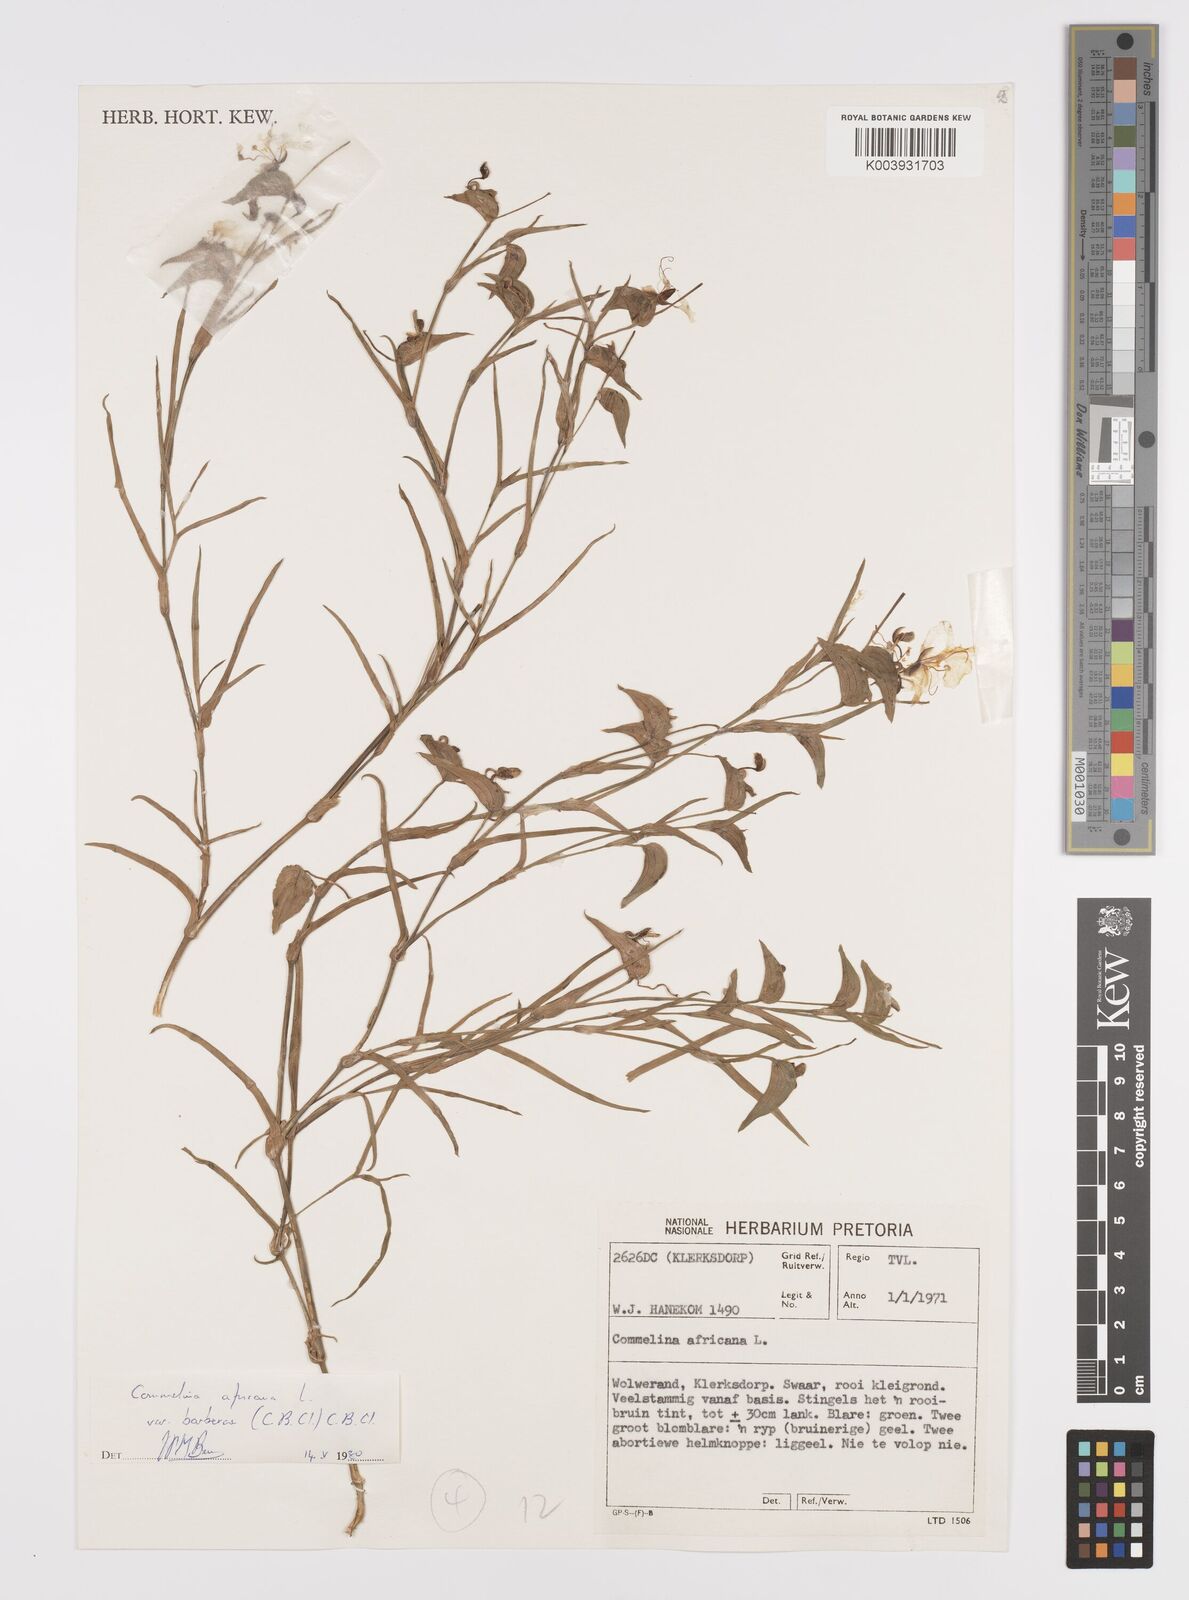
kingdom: Plantae
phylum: Tracheophyta
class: Liliopsida
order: Commelinales
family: Commelinaceae
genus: Commelina
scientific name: Commelina africana
